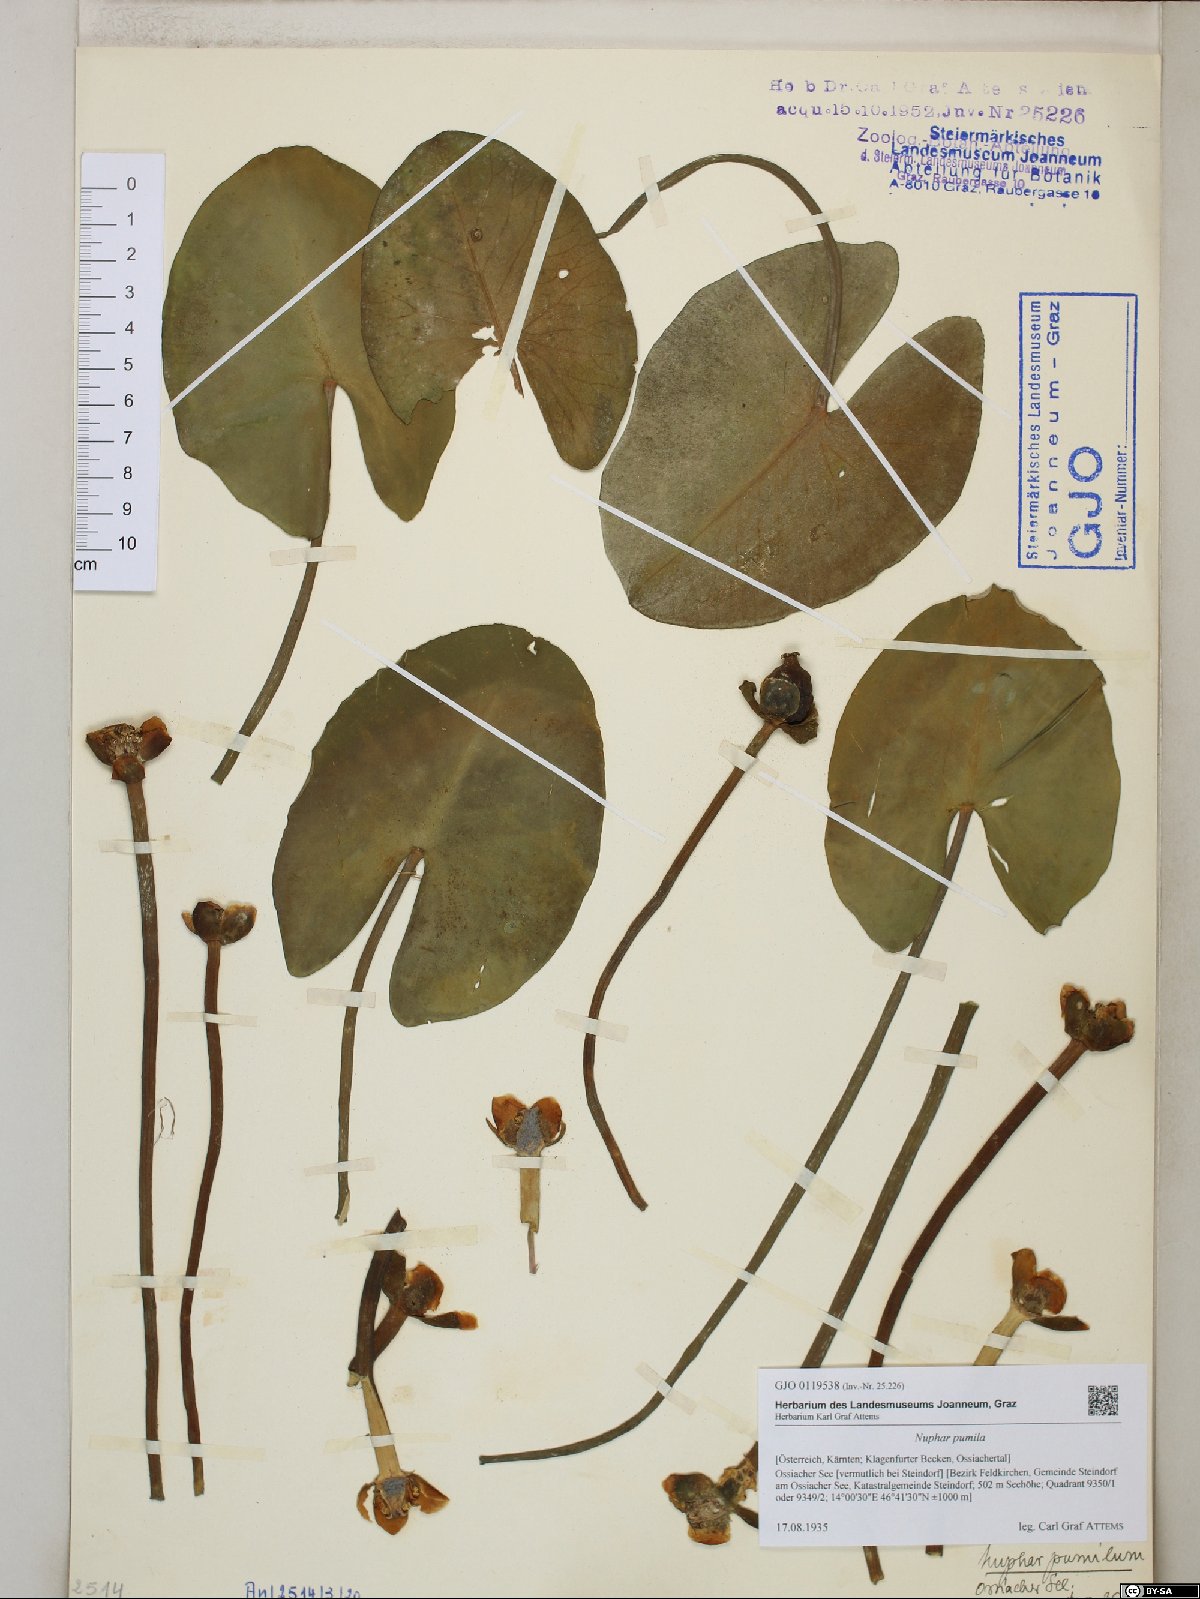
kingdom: Plantae
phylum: Tracheophyta
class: Magnoliopsida
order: Nymphaeales
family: Nymphaeaceae
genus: Nuphar
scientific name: Nuphar pumila
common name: Least water-lily
